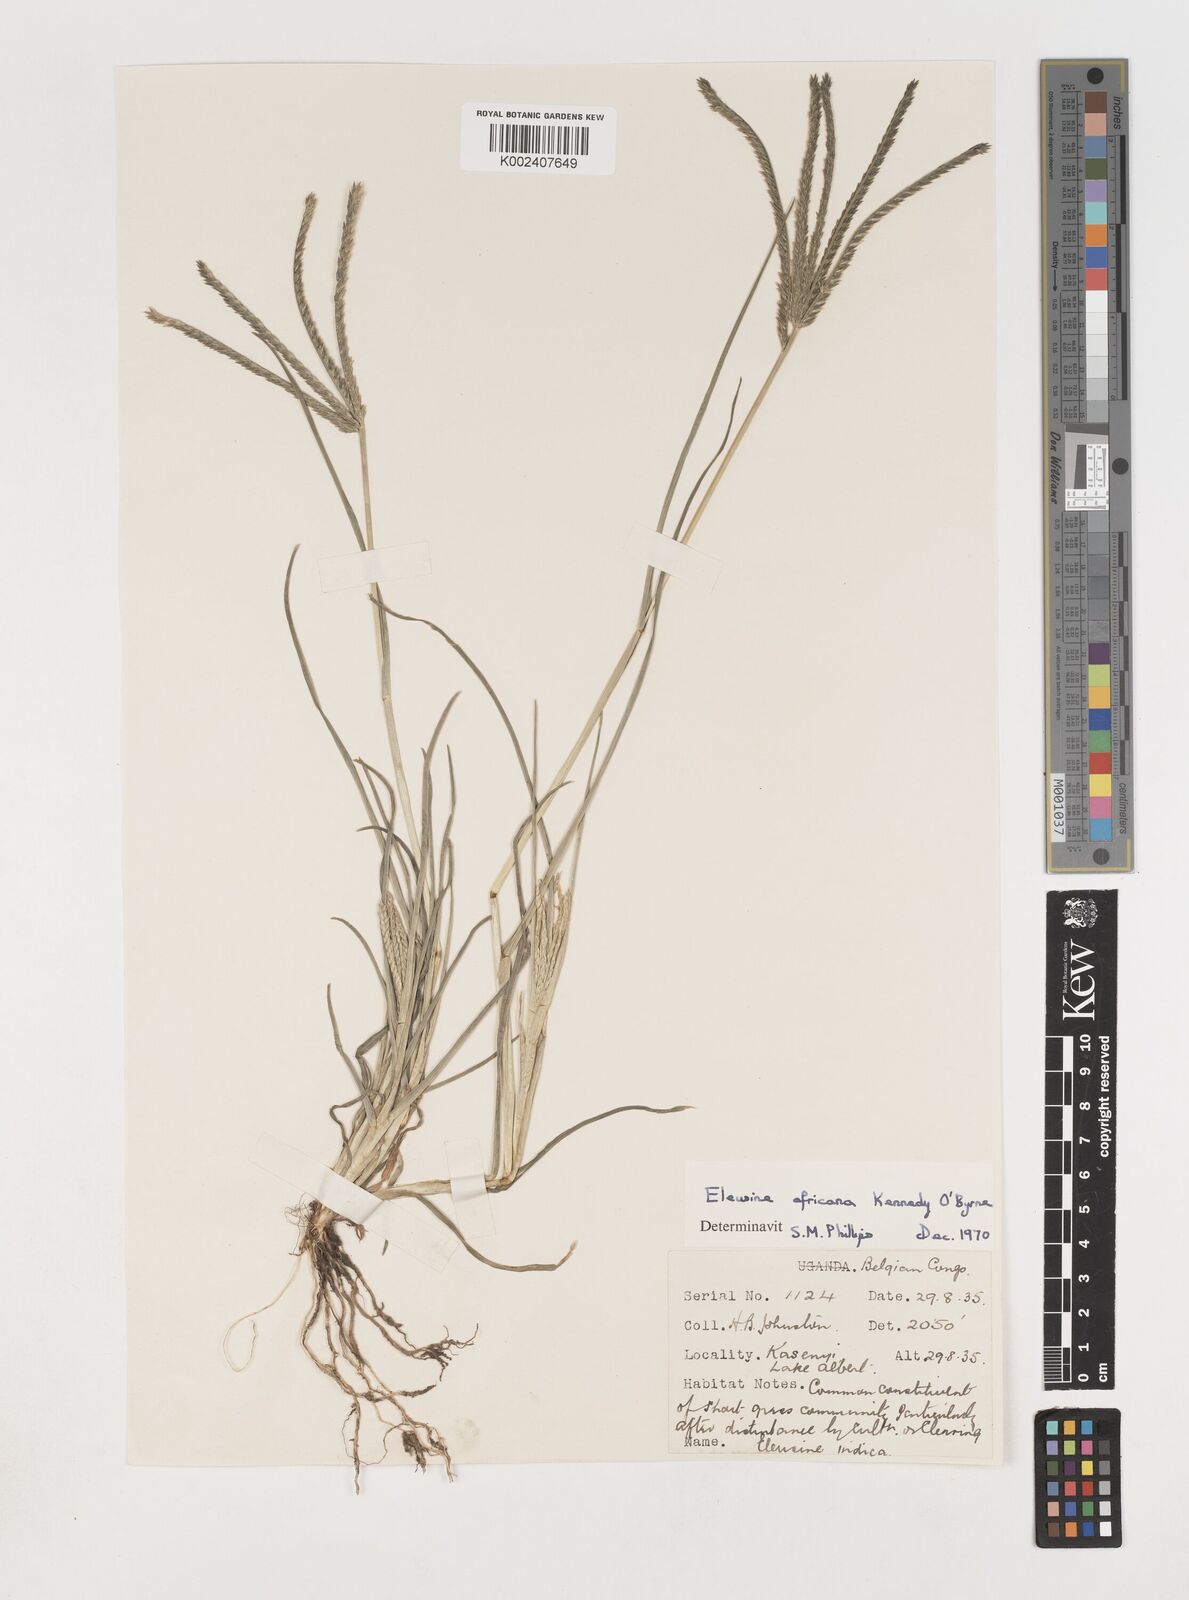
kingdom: Plantae
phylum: Tracheophyta
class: Liliopsida
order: Poales
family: Poaceae
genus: Eleusine
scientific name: Eleusine africana
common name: Wild african finger millet
